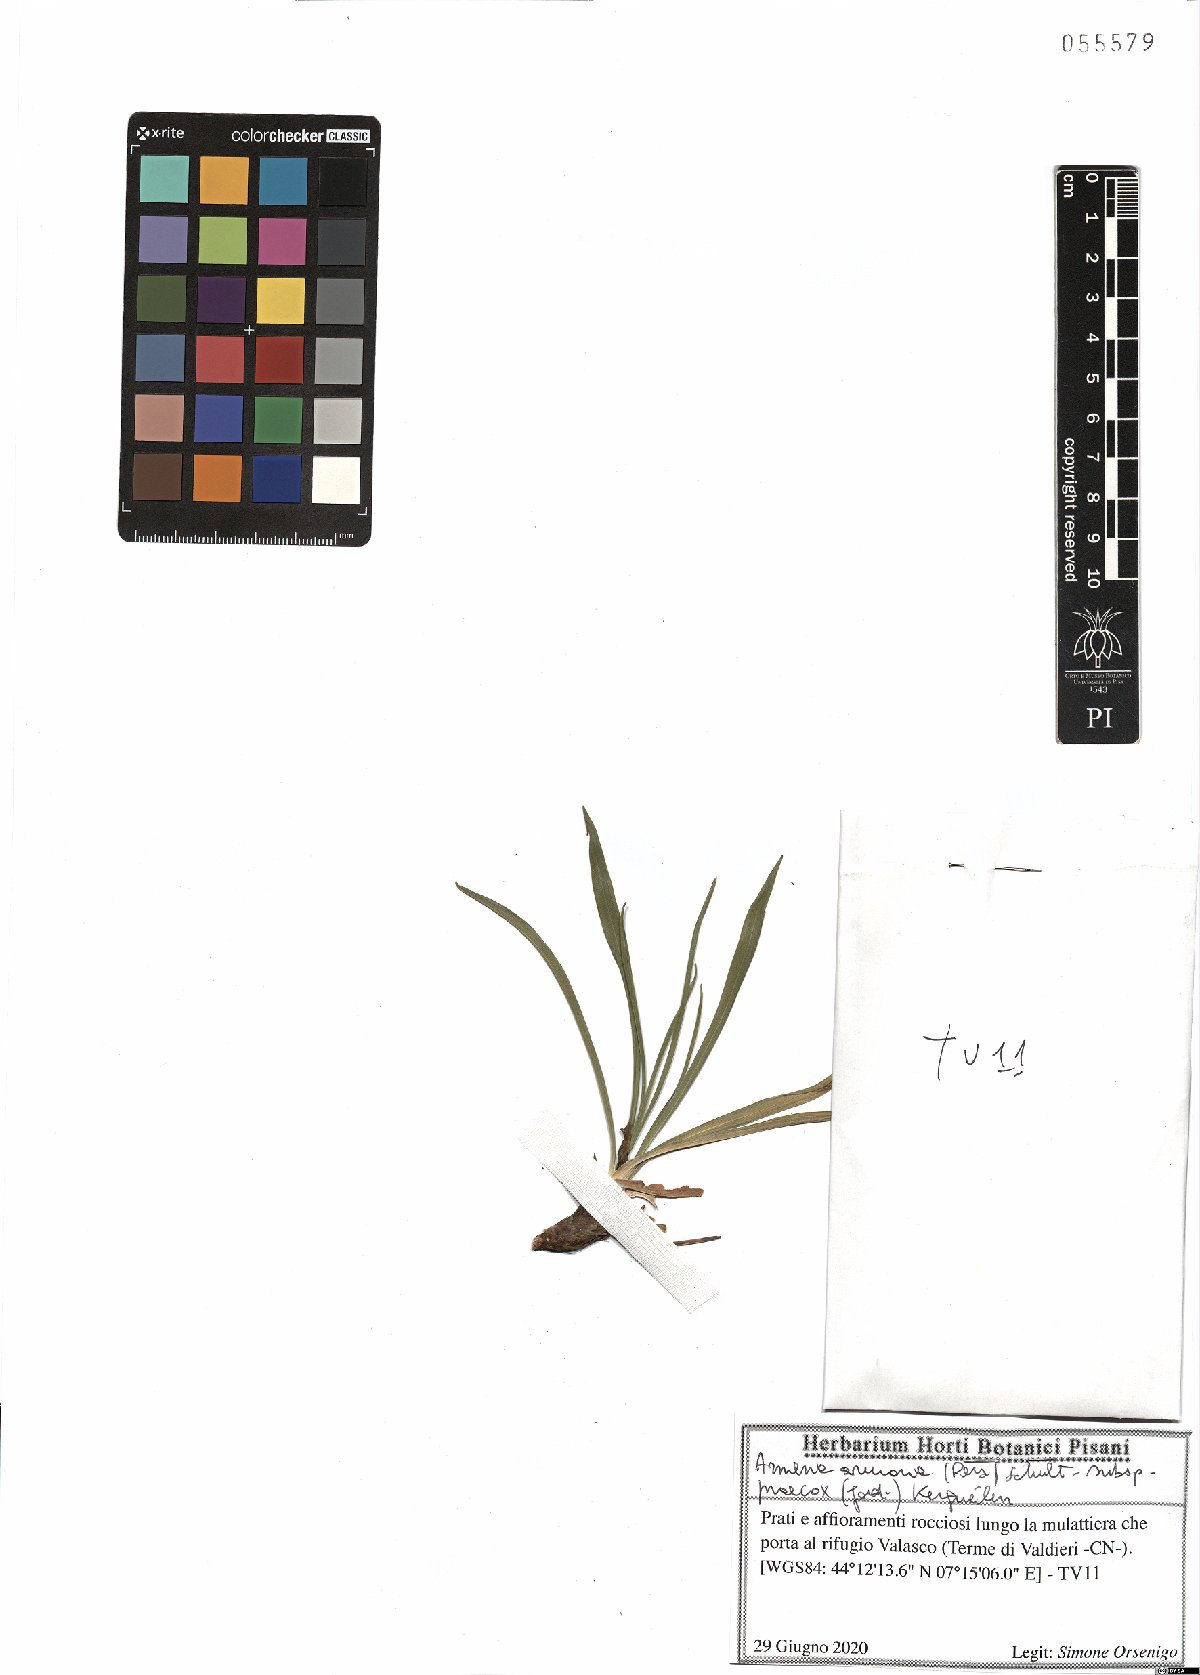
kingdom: Plantae
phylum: Tracheophyta
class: Magnoliopsida
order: Caryophyllales
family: Plumbaginaceae
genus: Armeria
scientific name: Armeria arenaria
